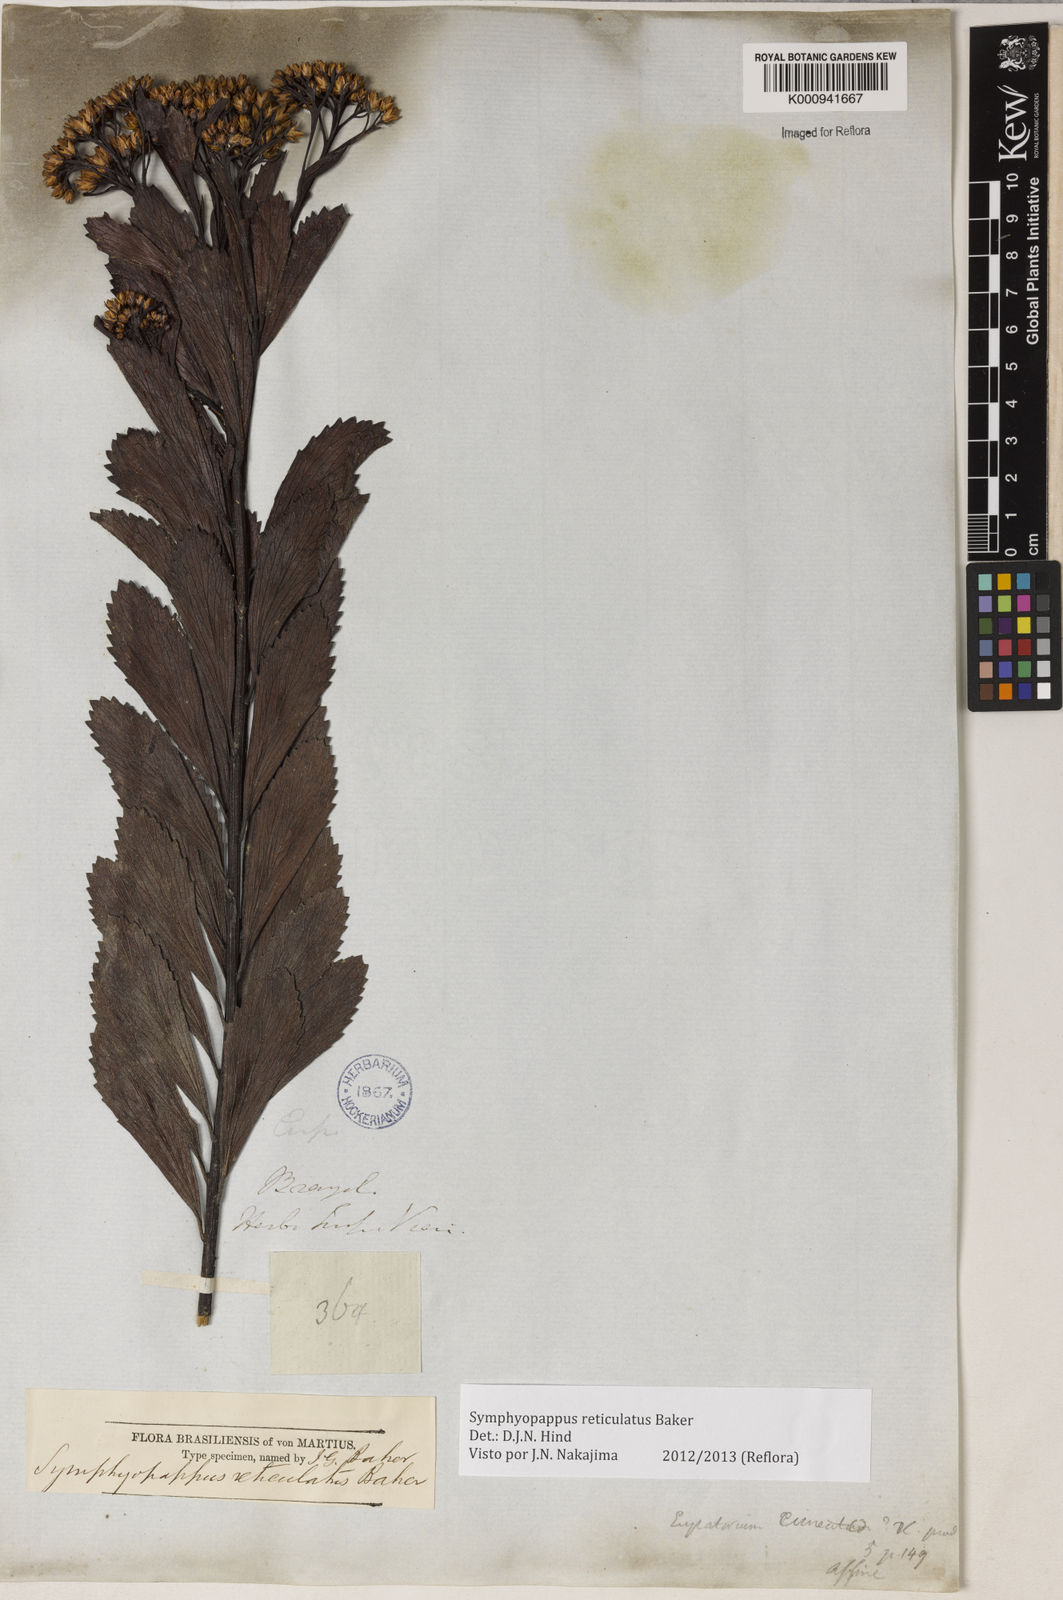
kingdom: Plantae
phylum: Tracheophyta
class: Magnoliopsida
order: Asterales
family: Asteraceae
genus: Symphyopappus
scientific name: Symphyopappus
